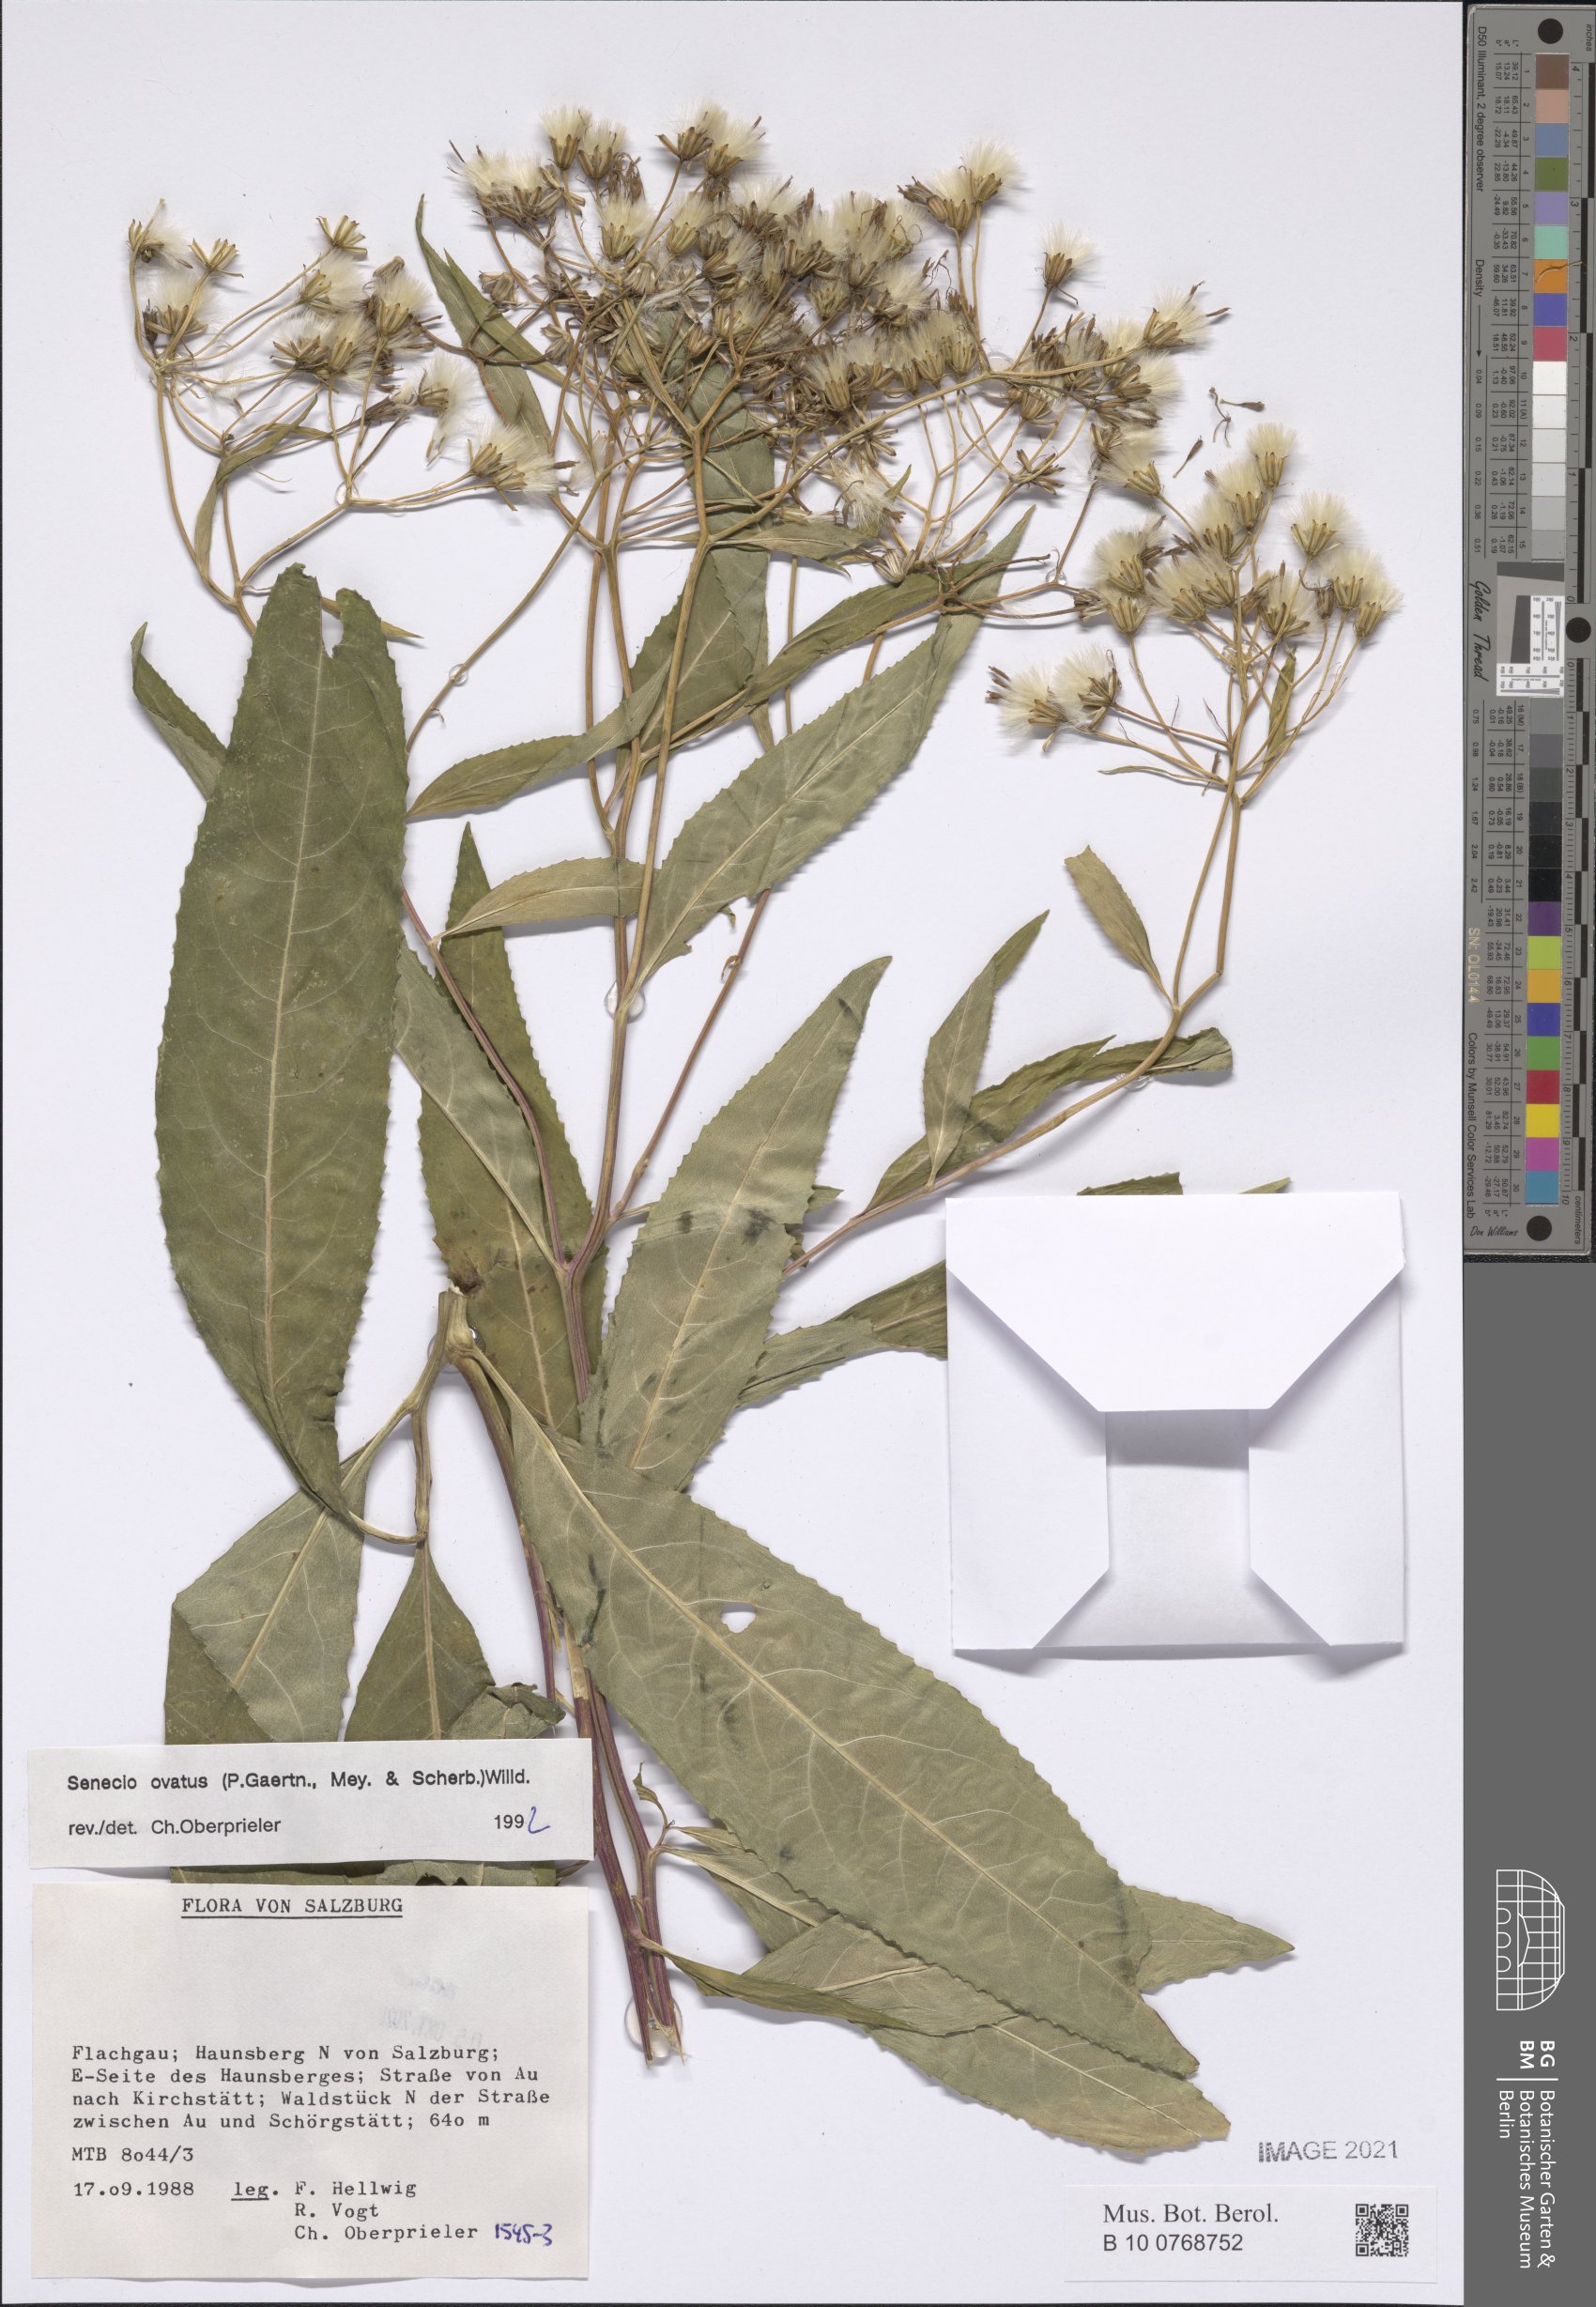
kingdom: Plantae
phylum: Tracheophyta
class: Magnoliopsida
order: Asterales
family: Asteraceae
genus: Senecio
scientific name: Senecio ovatus
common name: Wood ragwort
